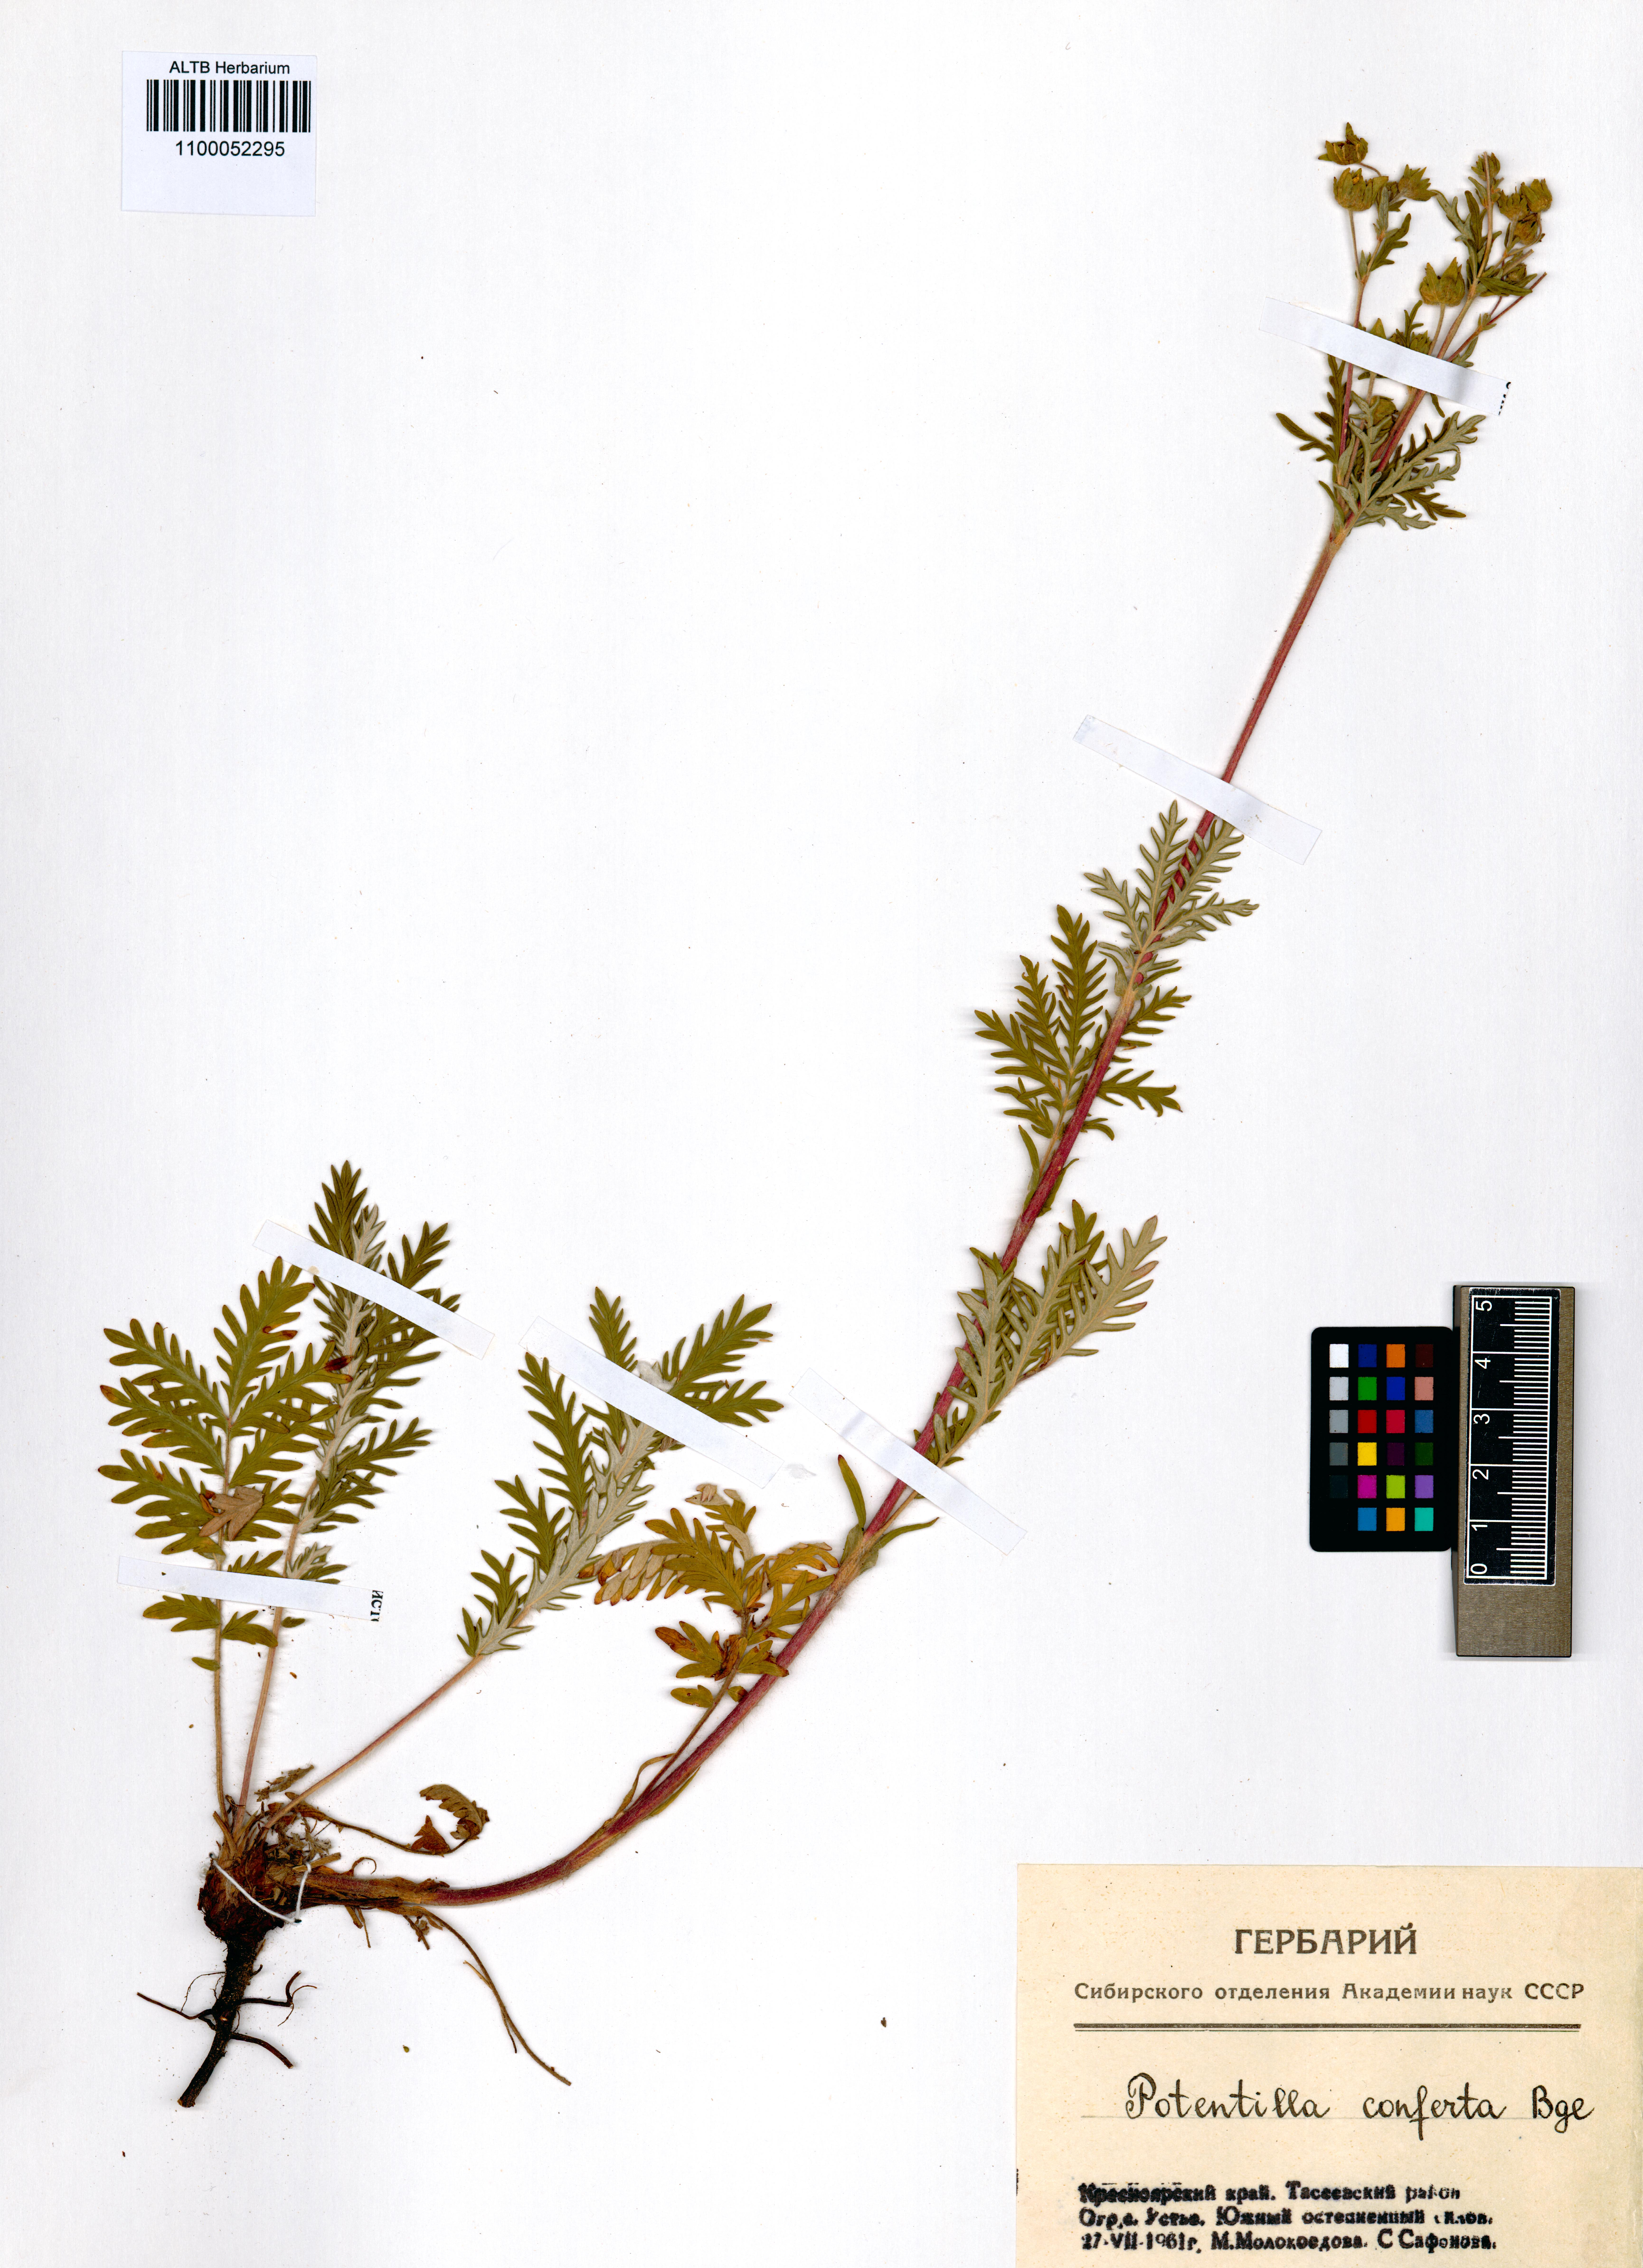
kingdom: Plantae
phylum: Tracheophyta
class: Magnoliopsida
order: Rosales
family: Rosaceae
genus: Potentilla
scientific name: Potentilla conferta
